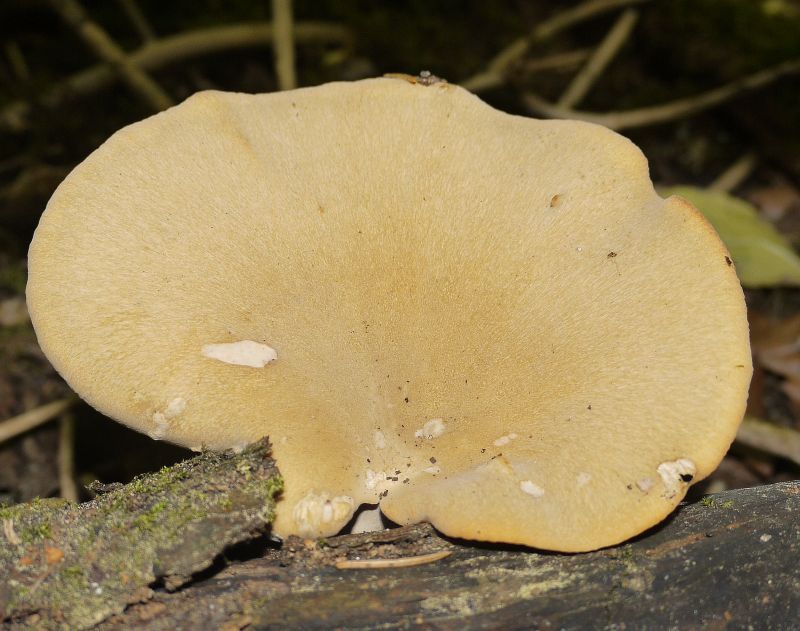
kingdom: Fungi
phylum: Basidiomycota
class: Agaricomycetes
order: Polyporales
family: Polyporaceae
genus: Cerioporus
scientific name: Cerioporus varius
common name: foranderlig stilkporesvamp
